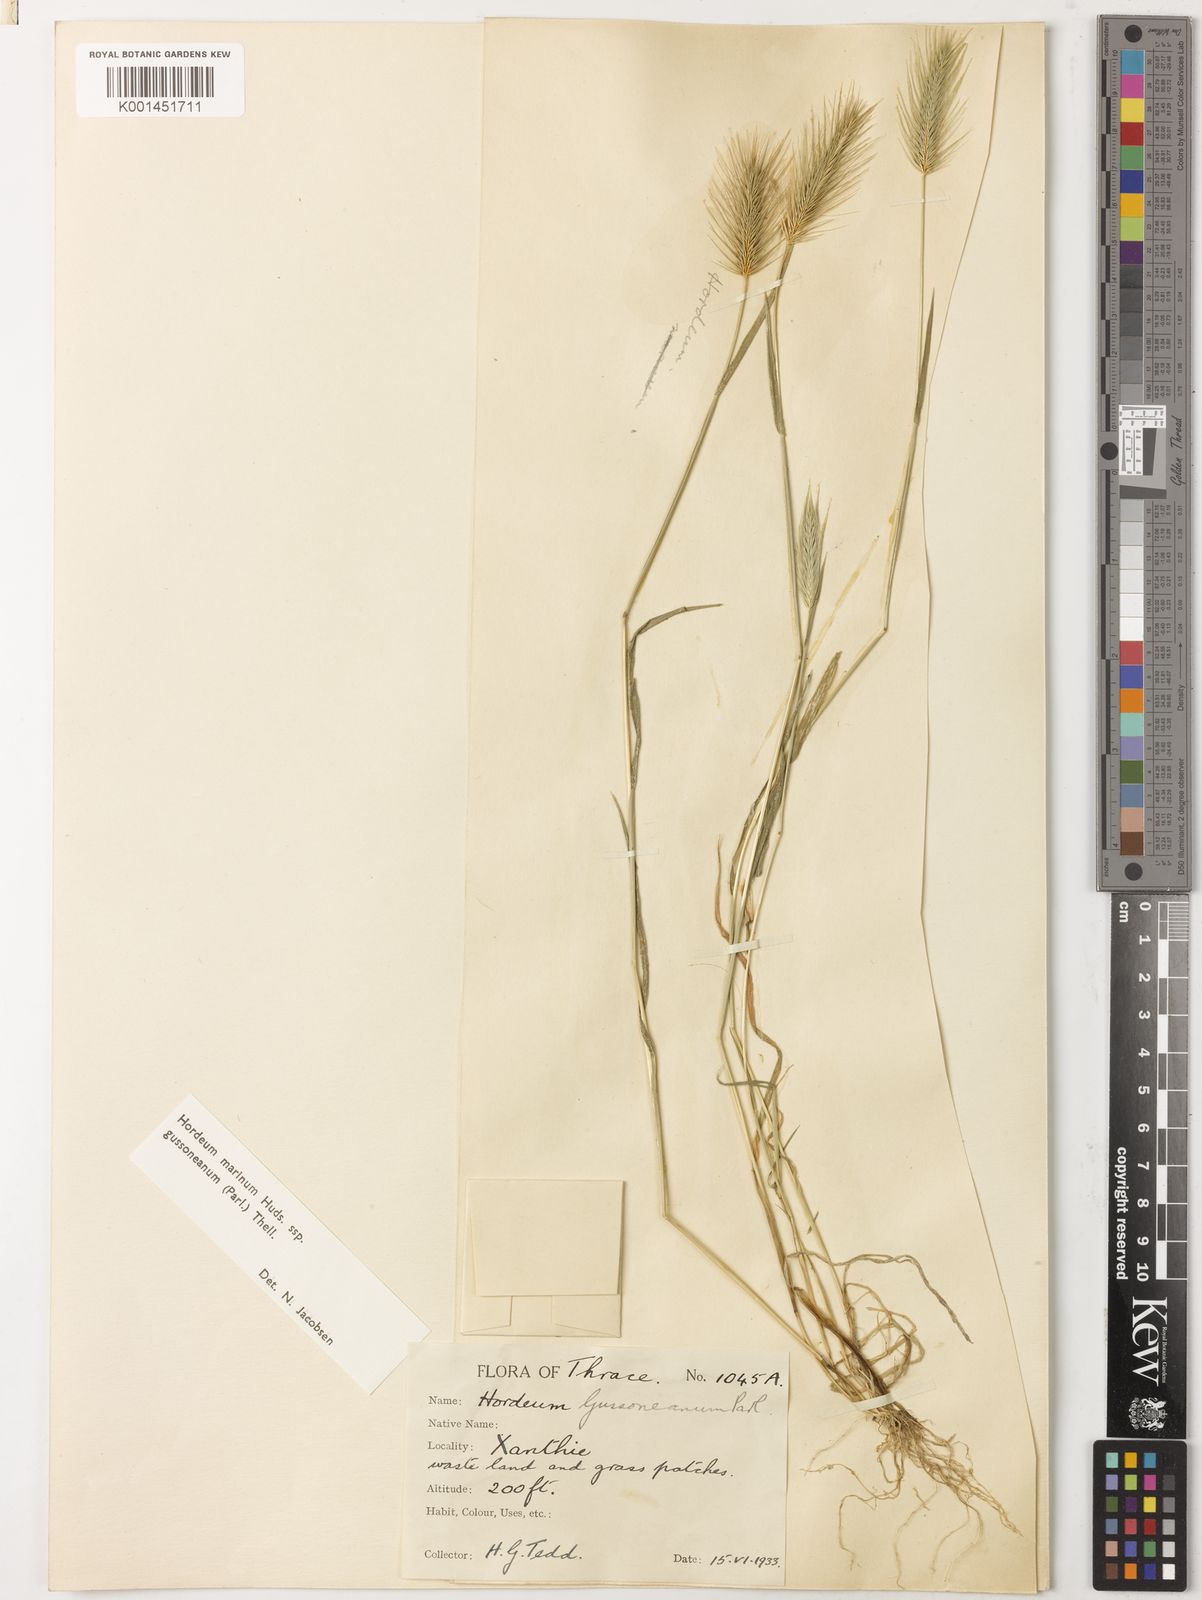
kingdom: Plantae
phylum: Tracheophyta
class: Liliopsida
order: Poales
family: Poaceae
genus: Hordeum
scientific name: Hordeum marinum
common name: Sea barley
